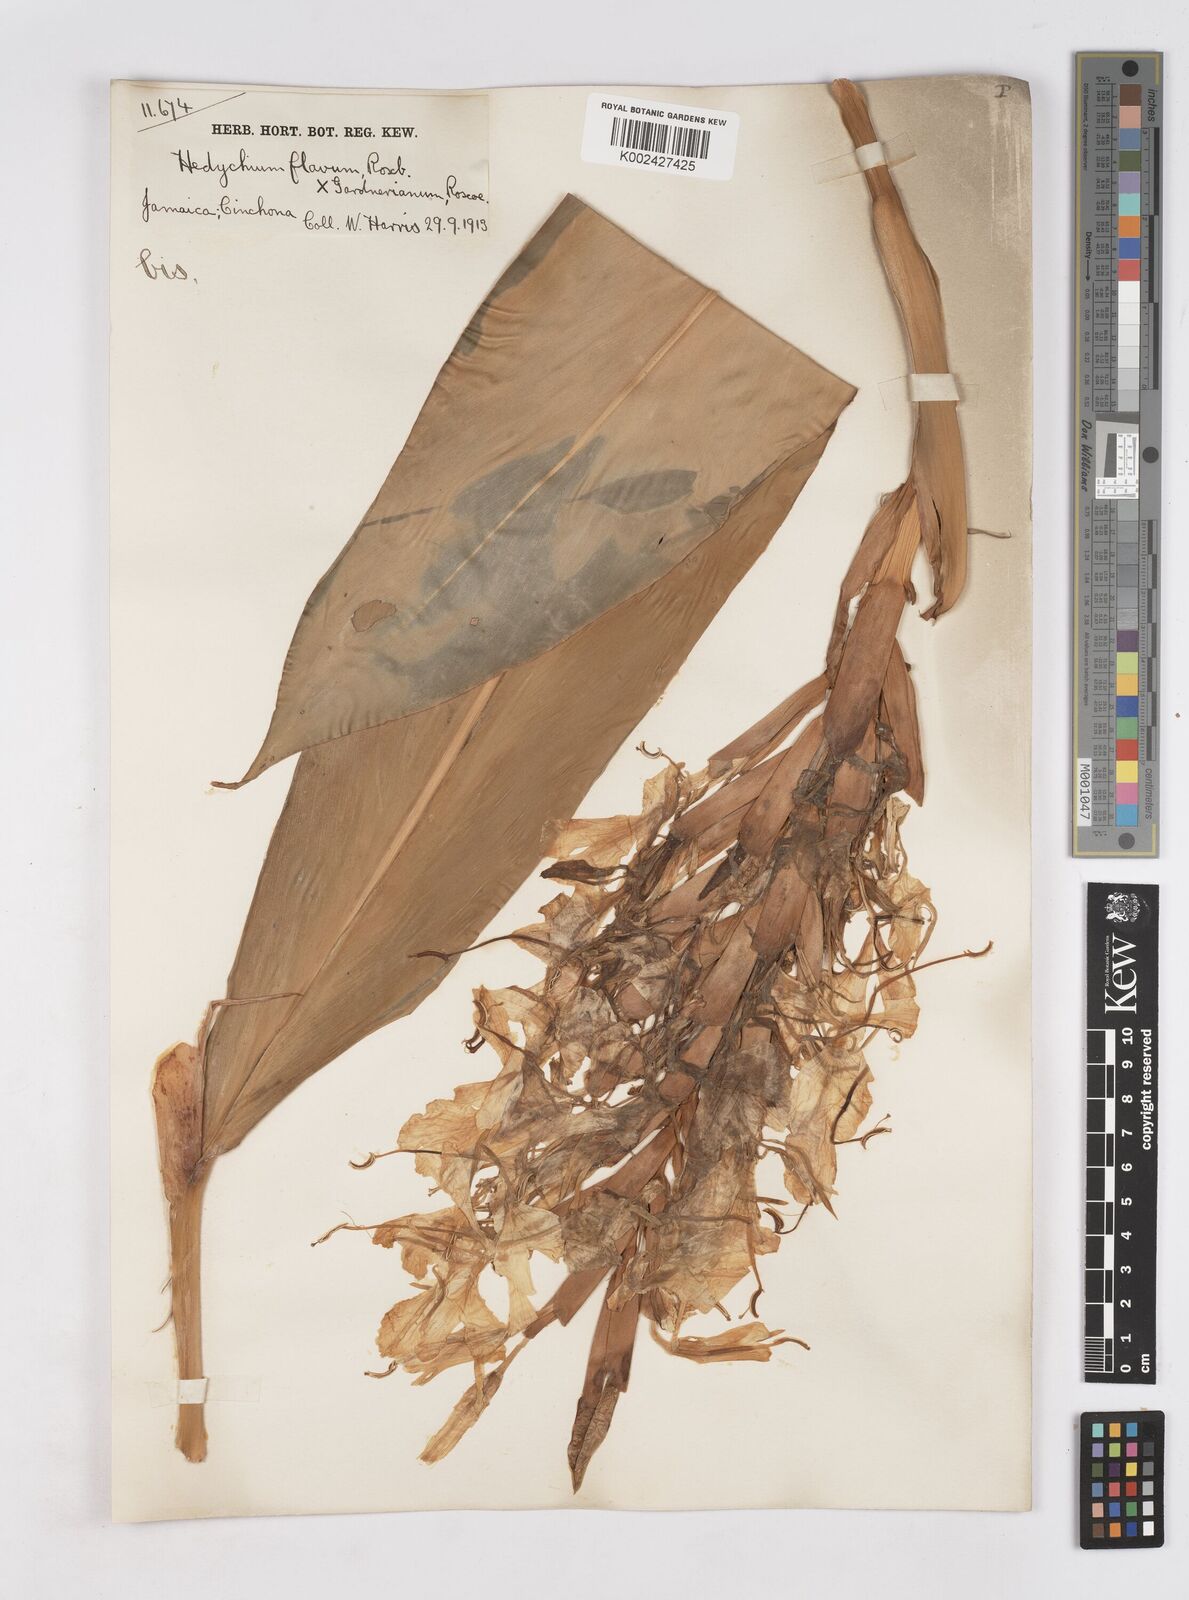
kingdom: Plantae
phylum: Tracheophyta
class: Liliopsida
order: Zingiberales
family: Zingiberaceae
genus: Hedychium
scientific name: Hedychium flavum
